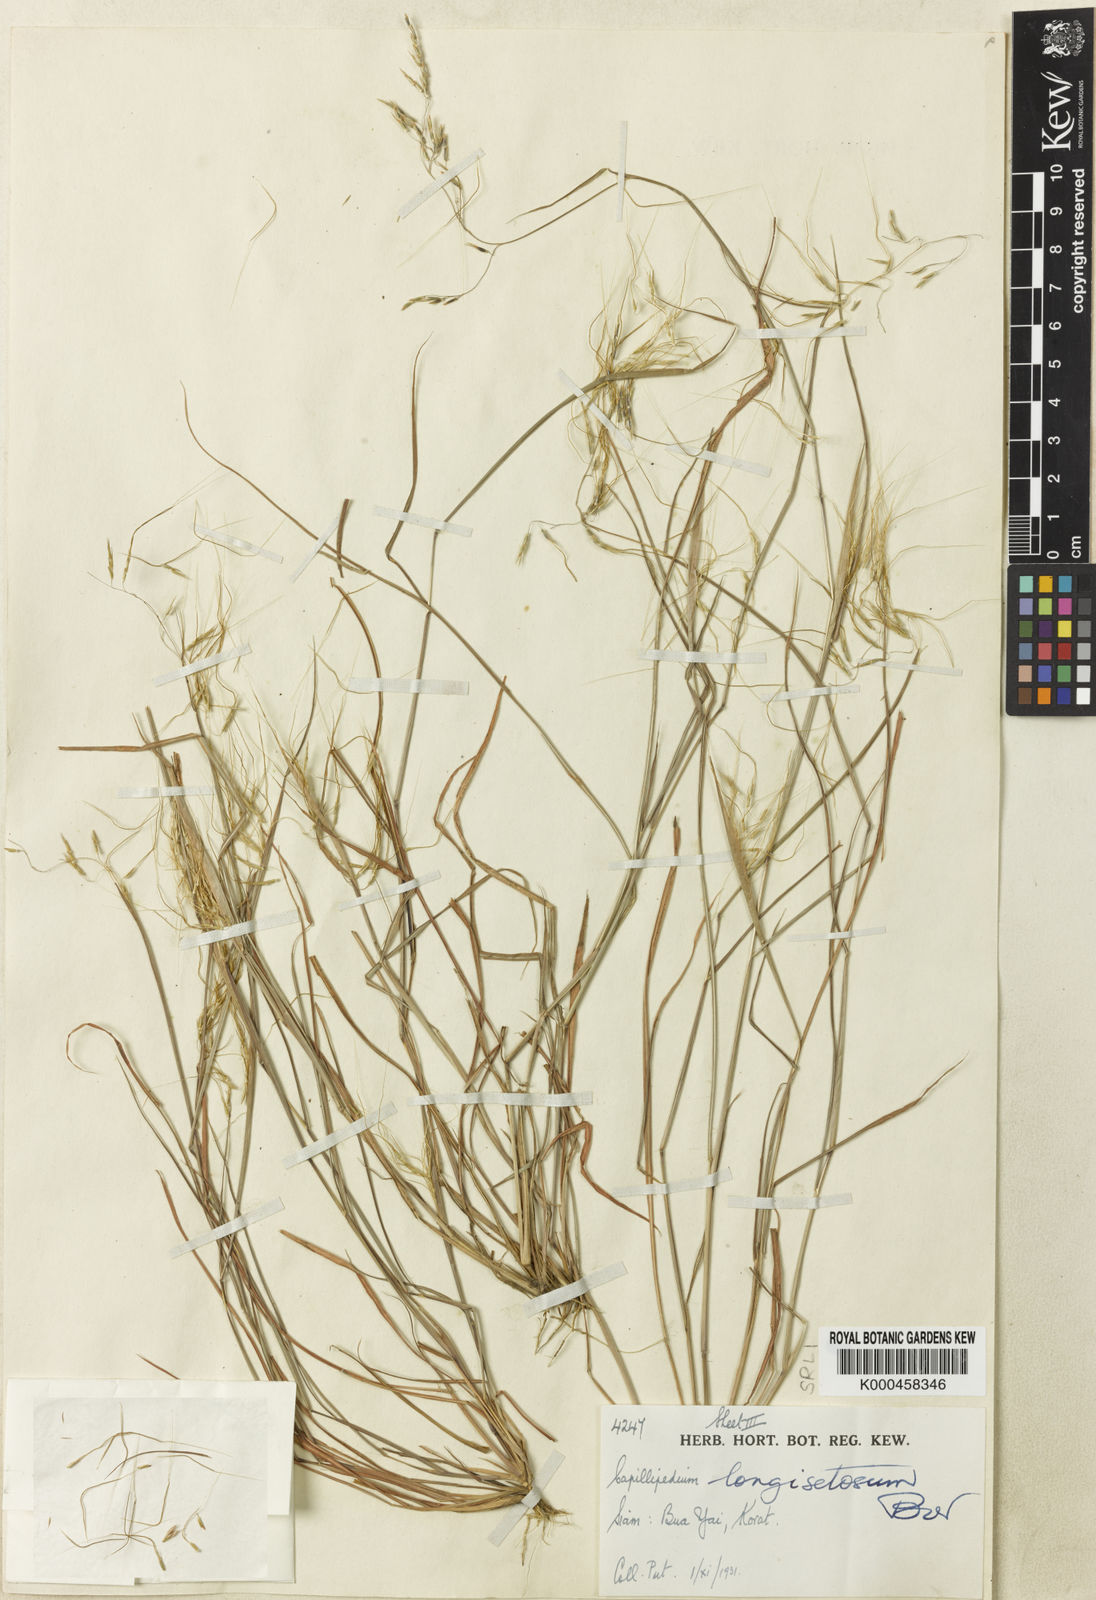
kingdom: Plantae
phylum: Tracheophyta
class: Liliopsida
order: Poales
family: Poaceae
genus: Capillipedium
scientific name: Capillipedium longisetosum
